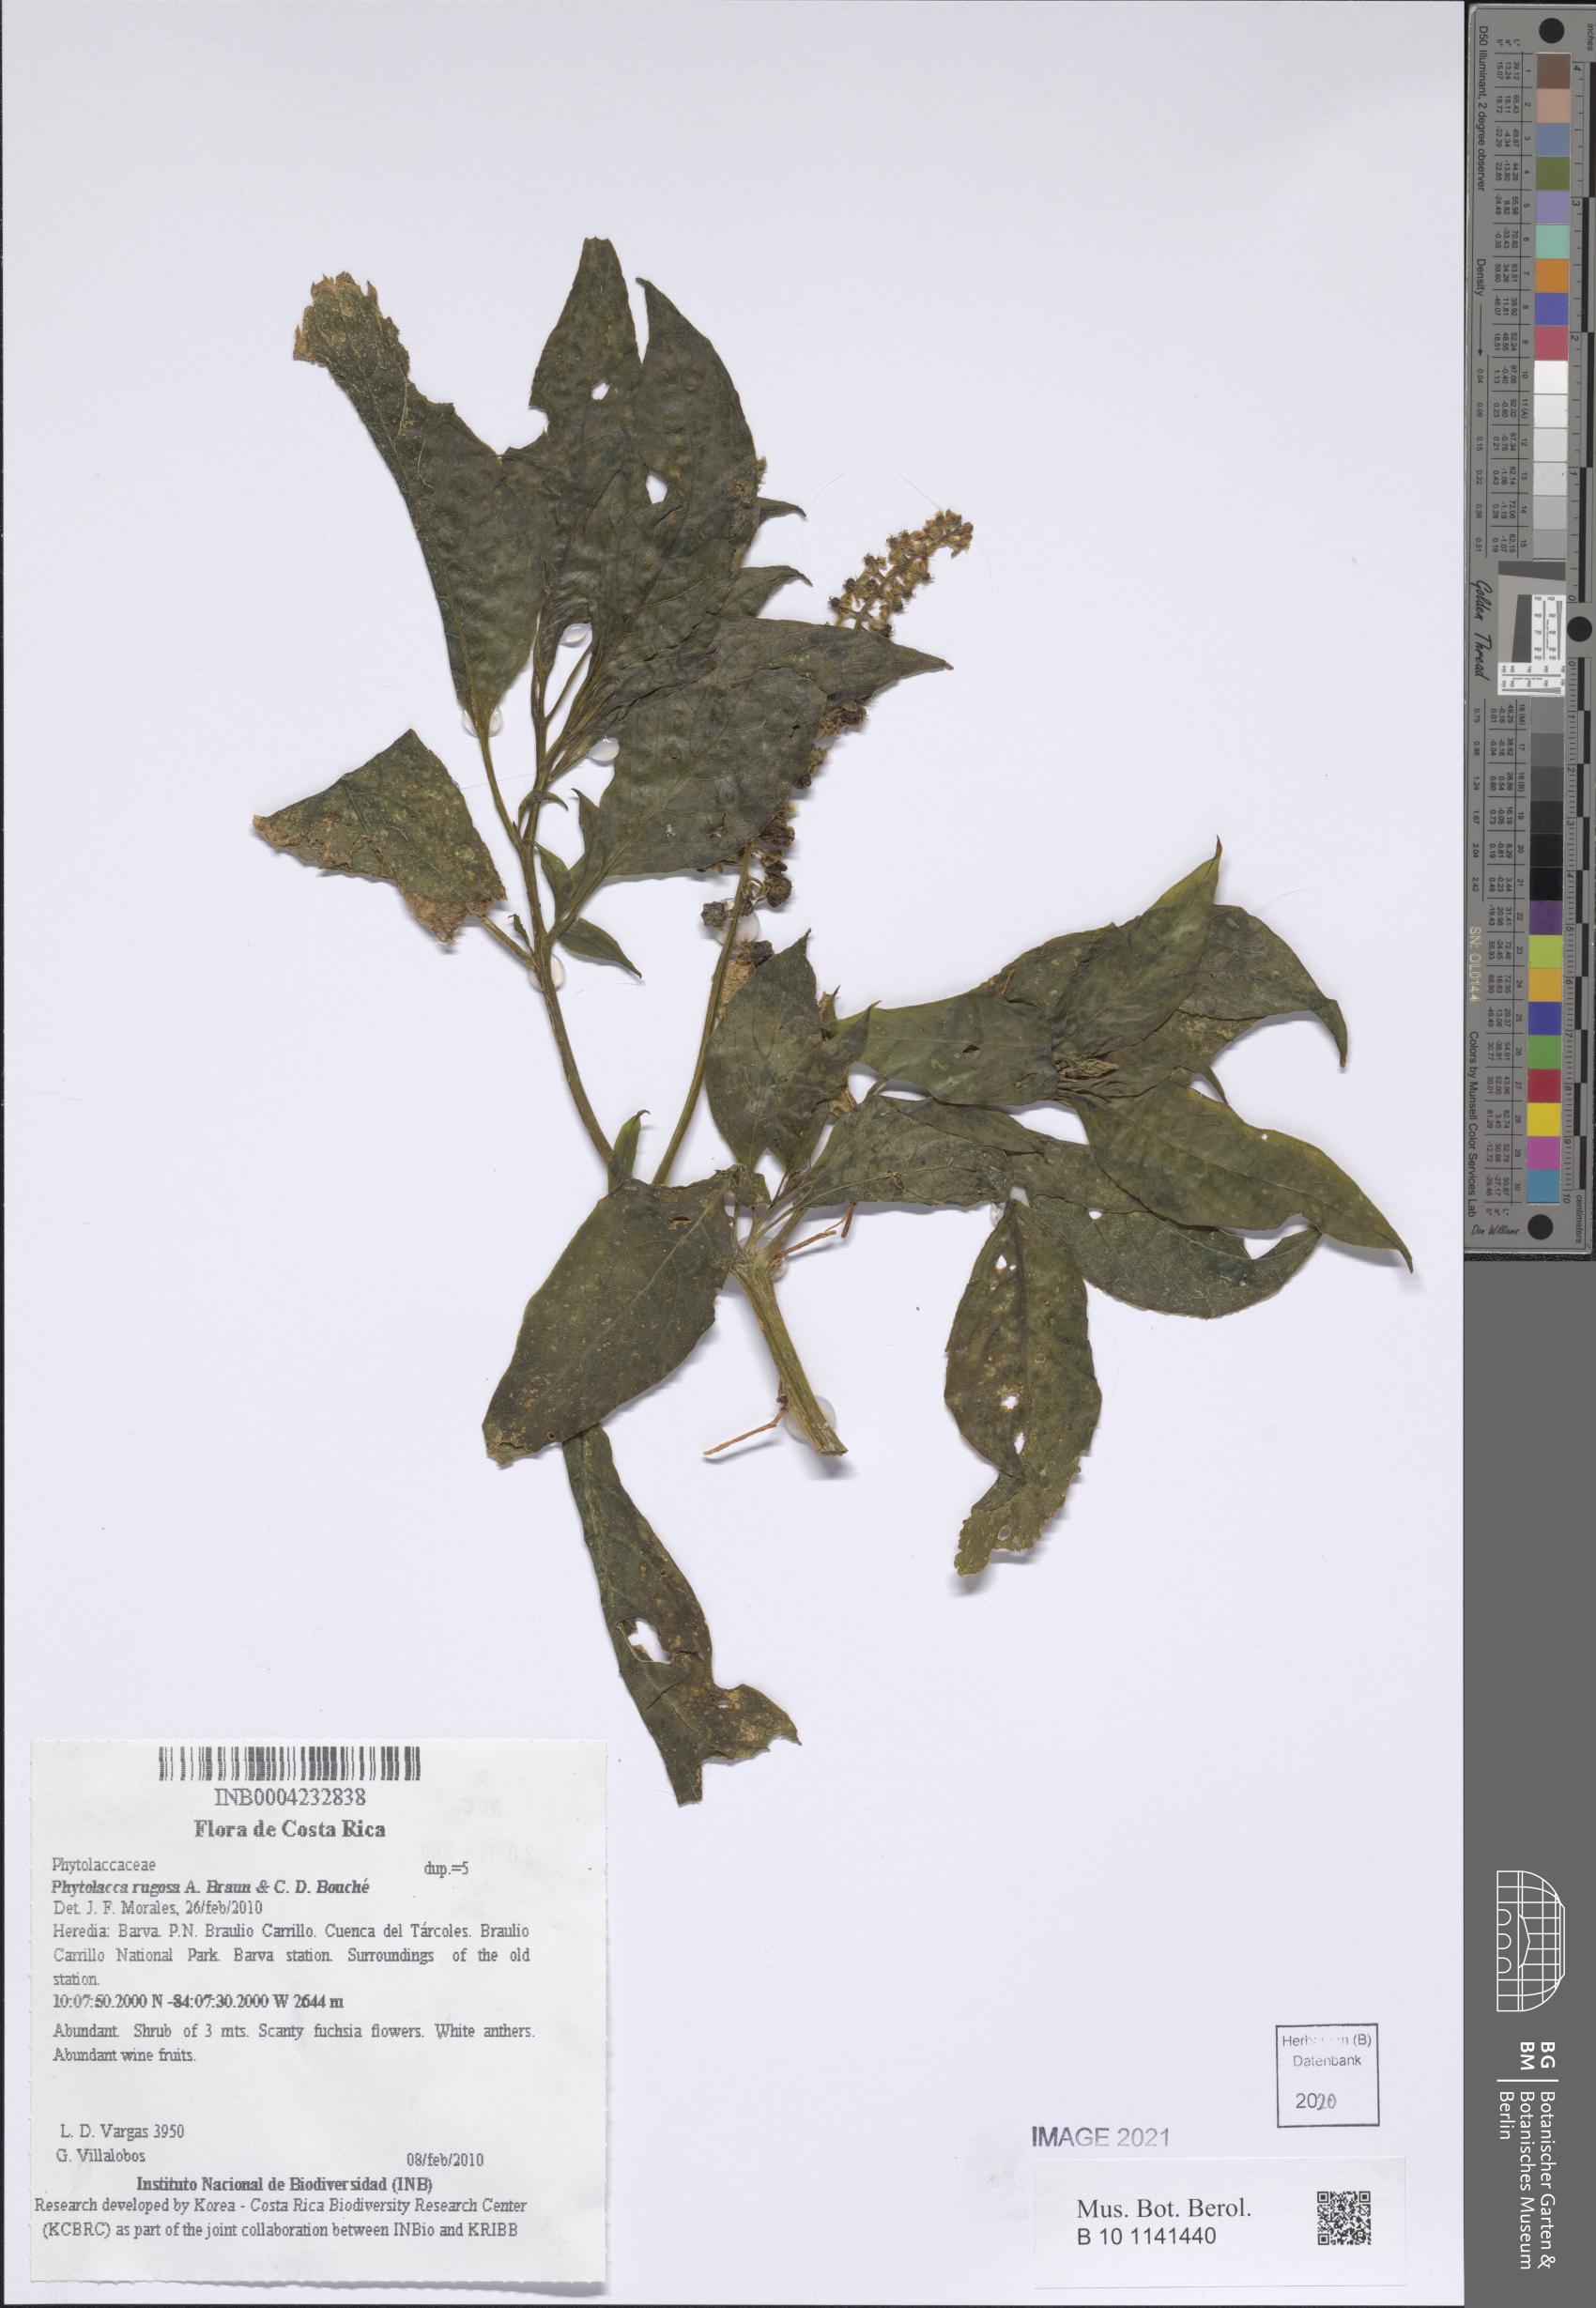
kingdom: Plantae
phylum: Tracheophyta
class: Magnoliopsida
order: Caryophyllales
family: Phytolaccaceae
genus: Phytolacca
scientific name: Phytolacca rugosa
